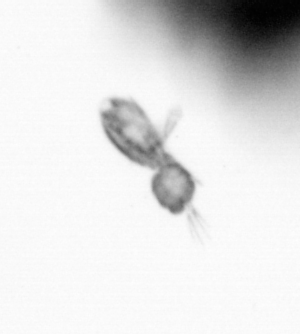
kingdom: Animalia
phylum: Arthropoda
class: Copepoda
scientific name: Copepoda
